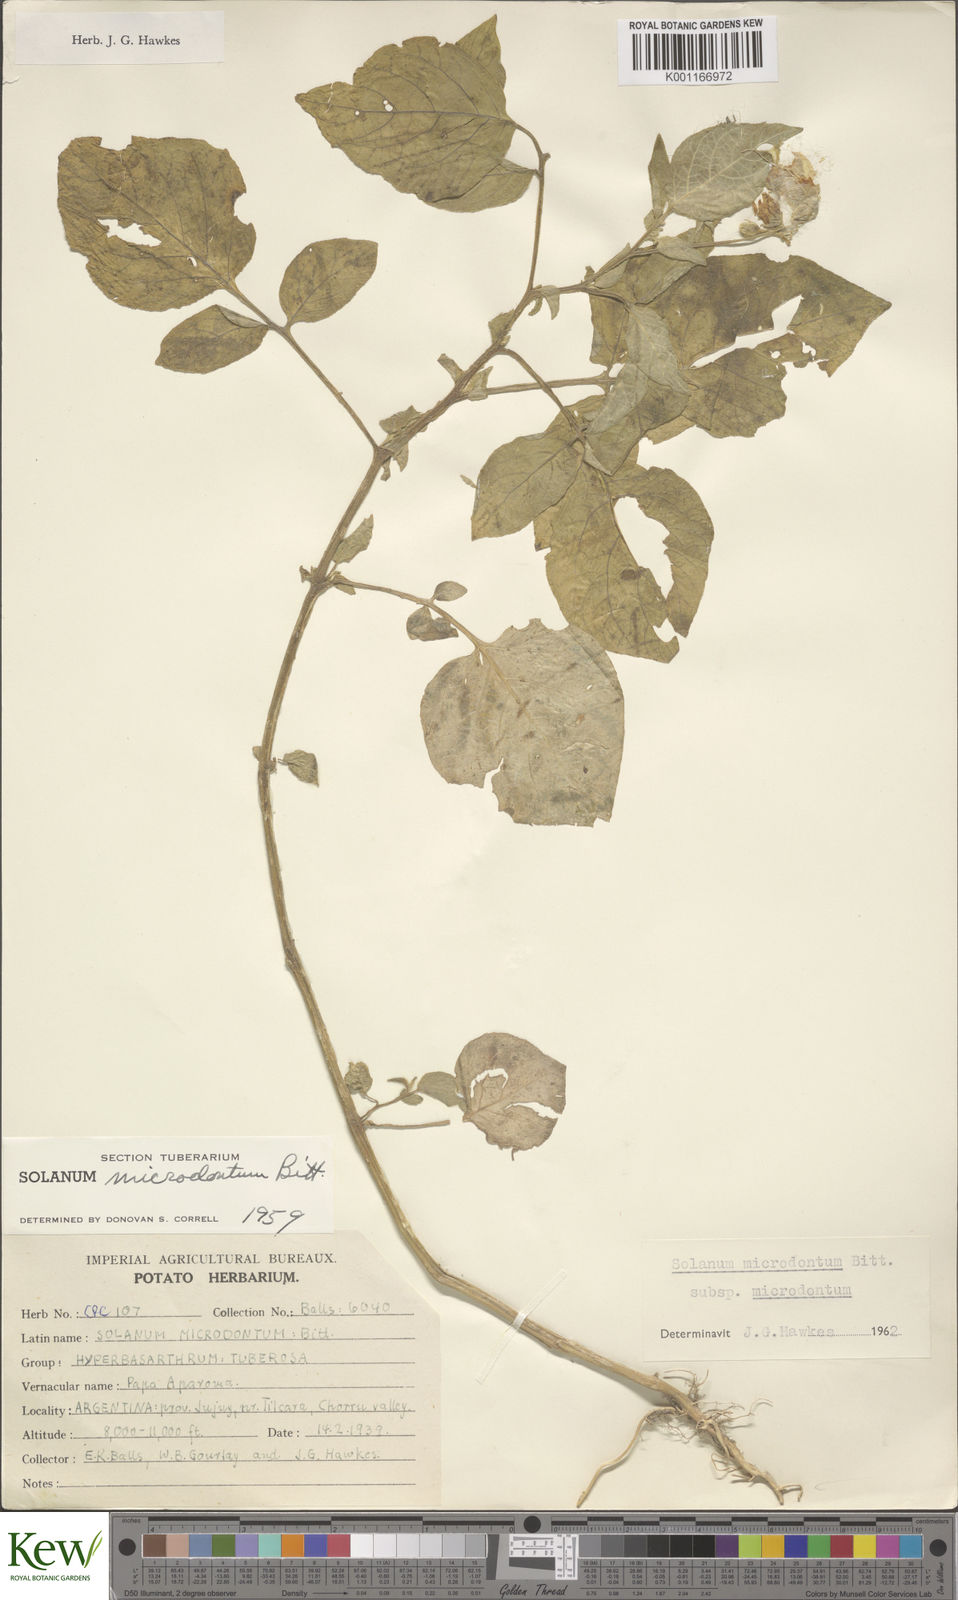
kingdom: Plantae
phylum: Tracheophyta
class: Magnoliopsida
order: Solanales
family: Solanaceae
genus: Solanum
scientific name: Solanum microdontum
